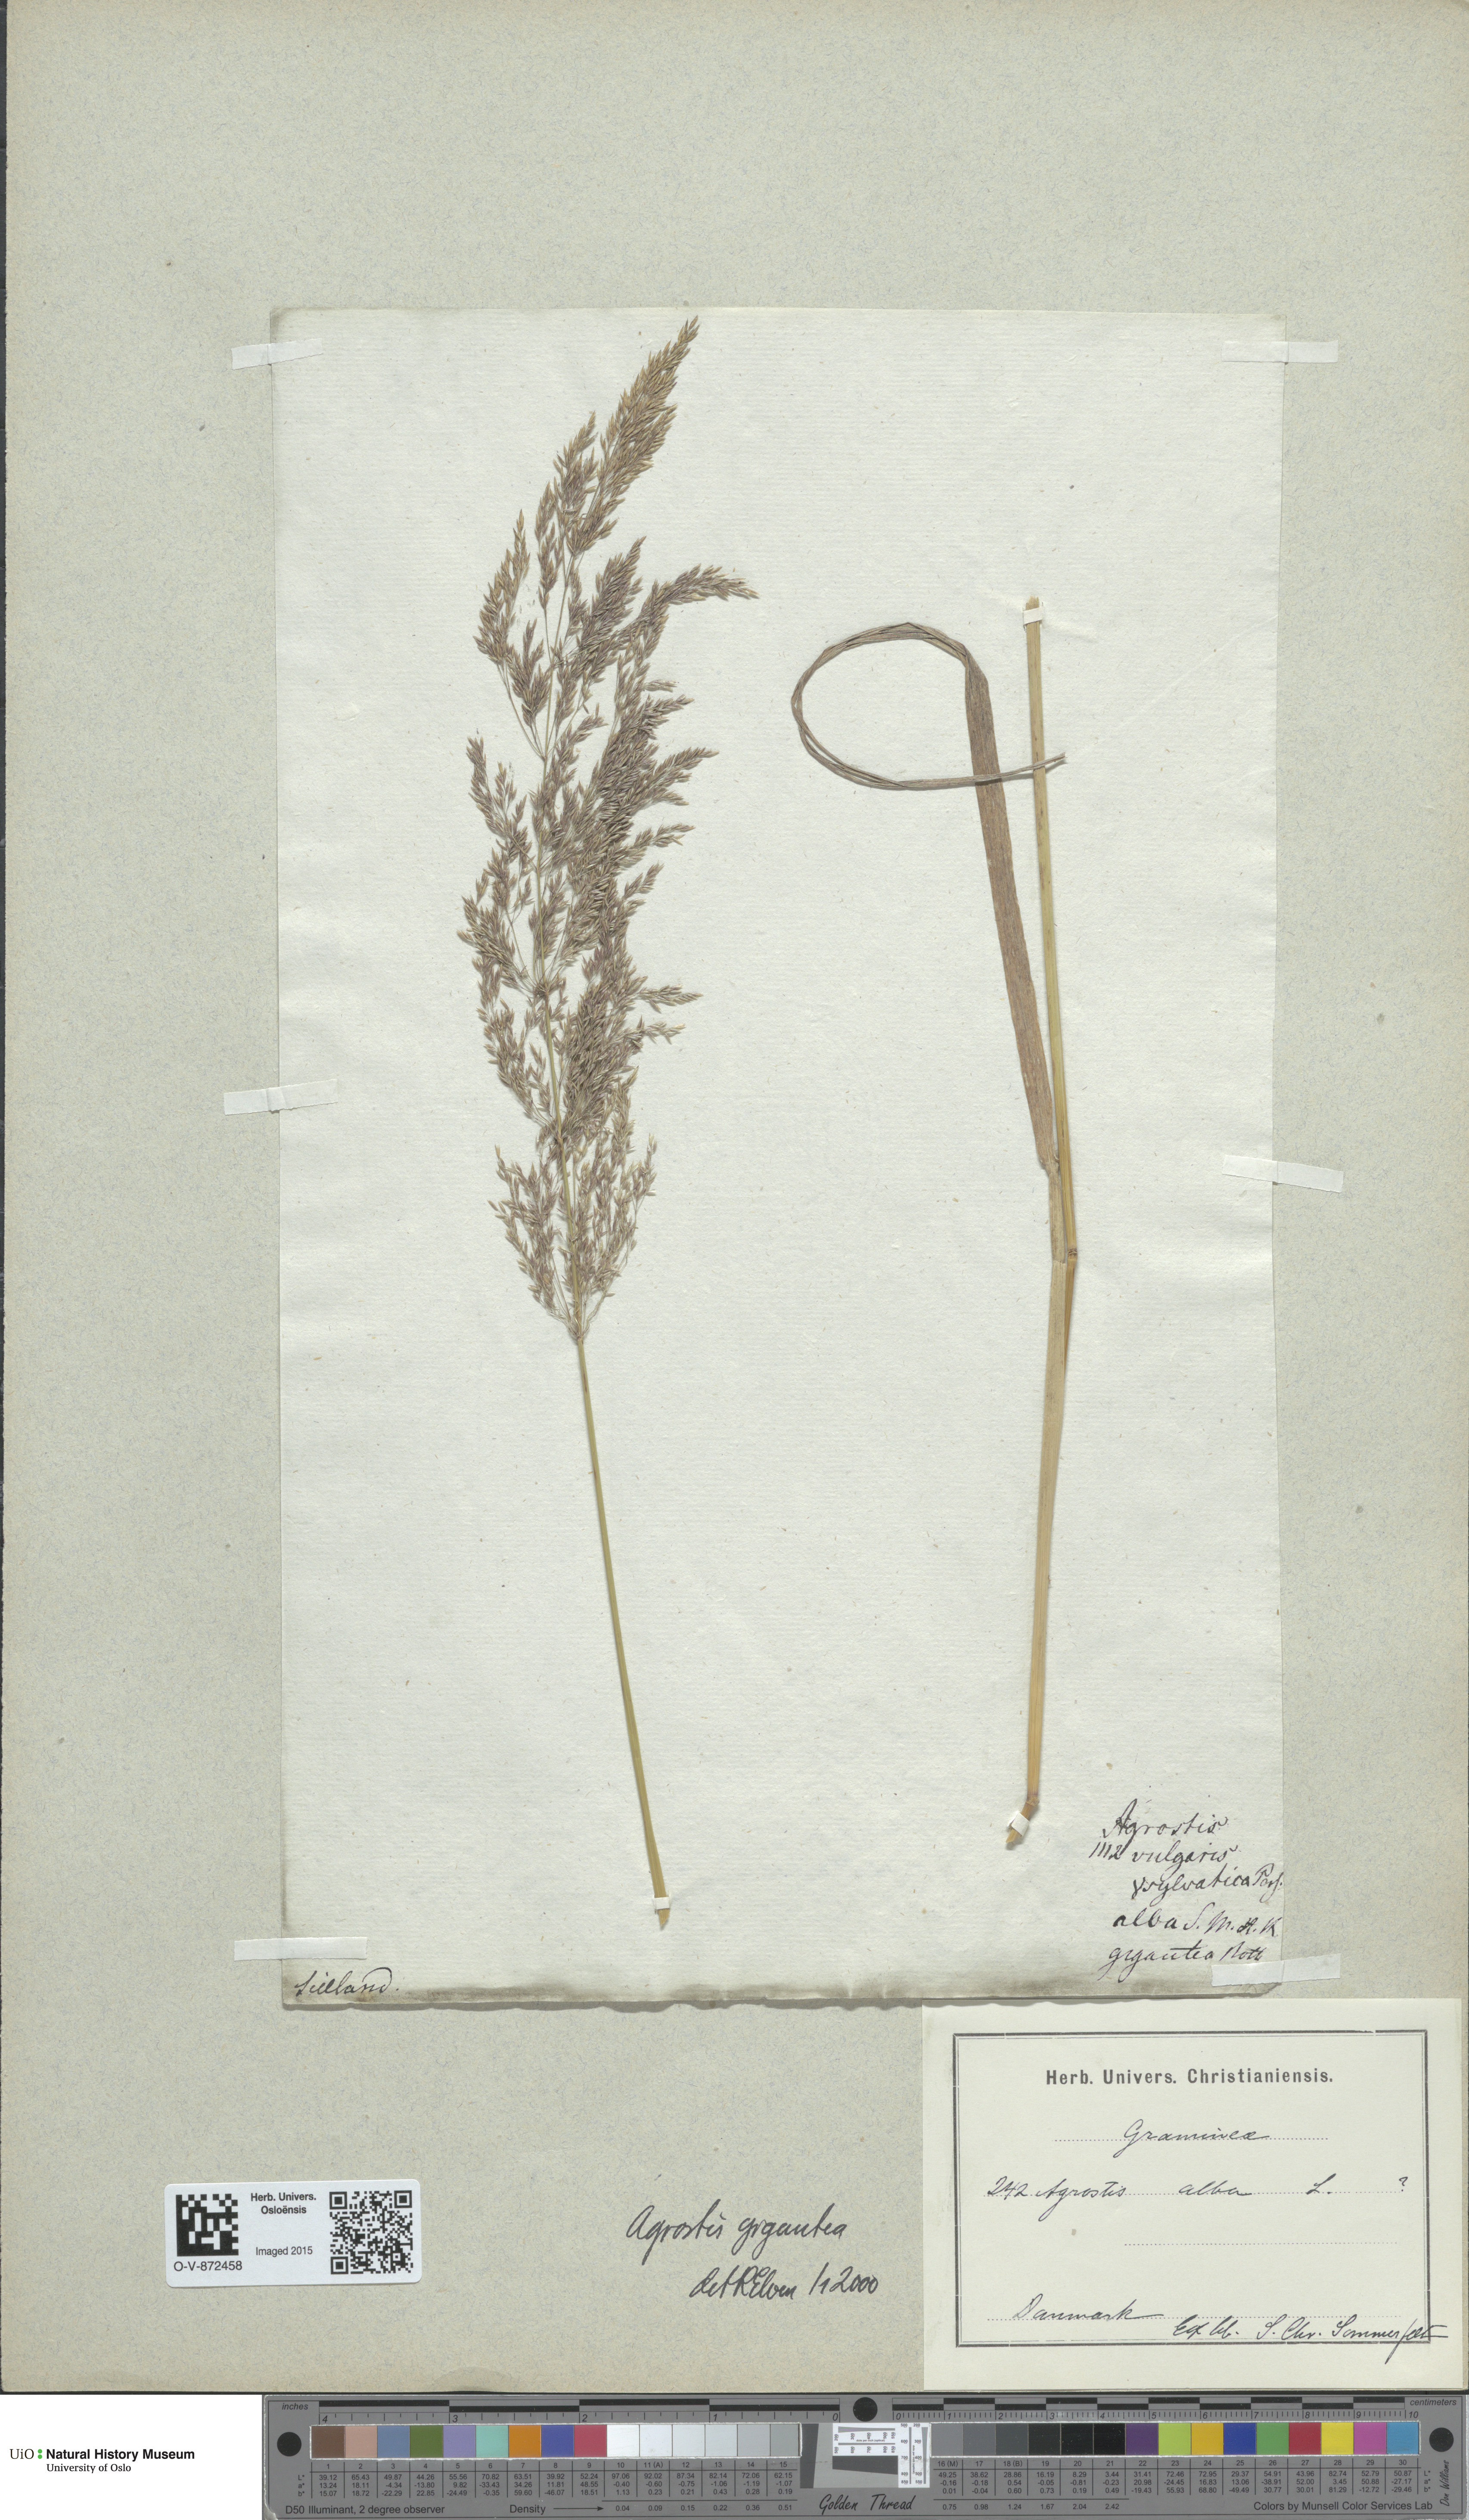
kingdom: Plantae
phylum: Tracheophyta
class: Liliopsida
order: Poales
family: Poaceae
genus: Agrostis
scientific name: Agrostis gigantea
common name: Black bent
